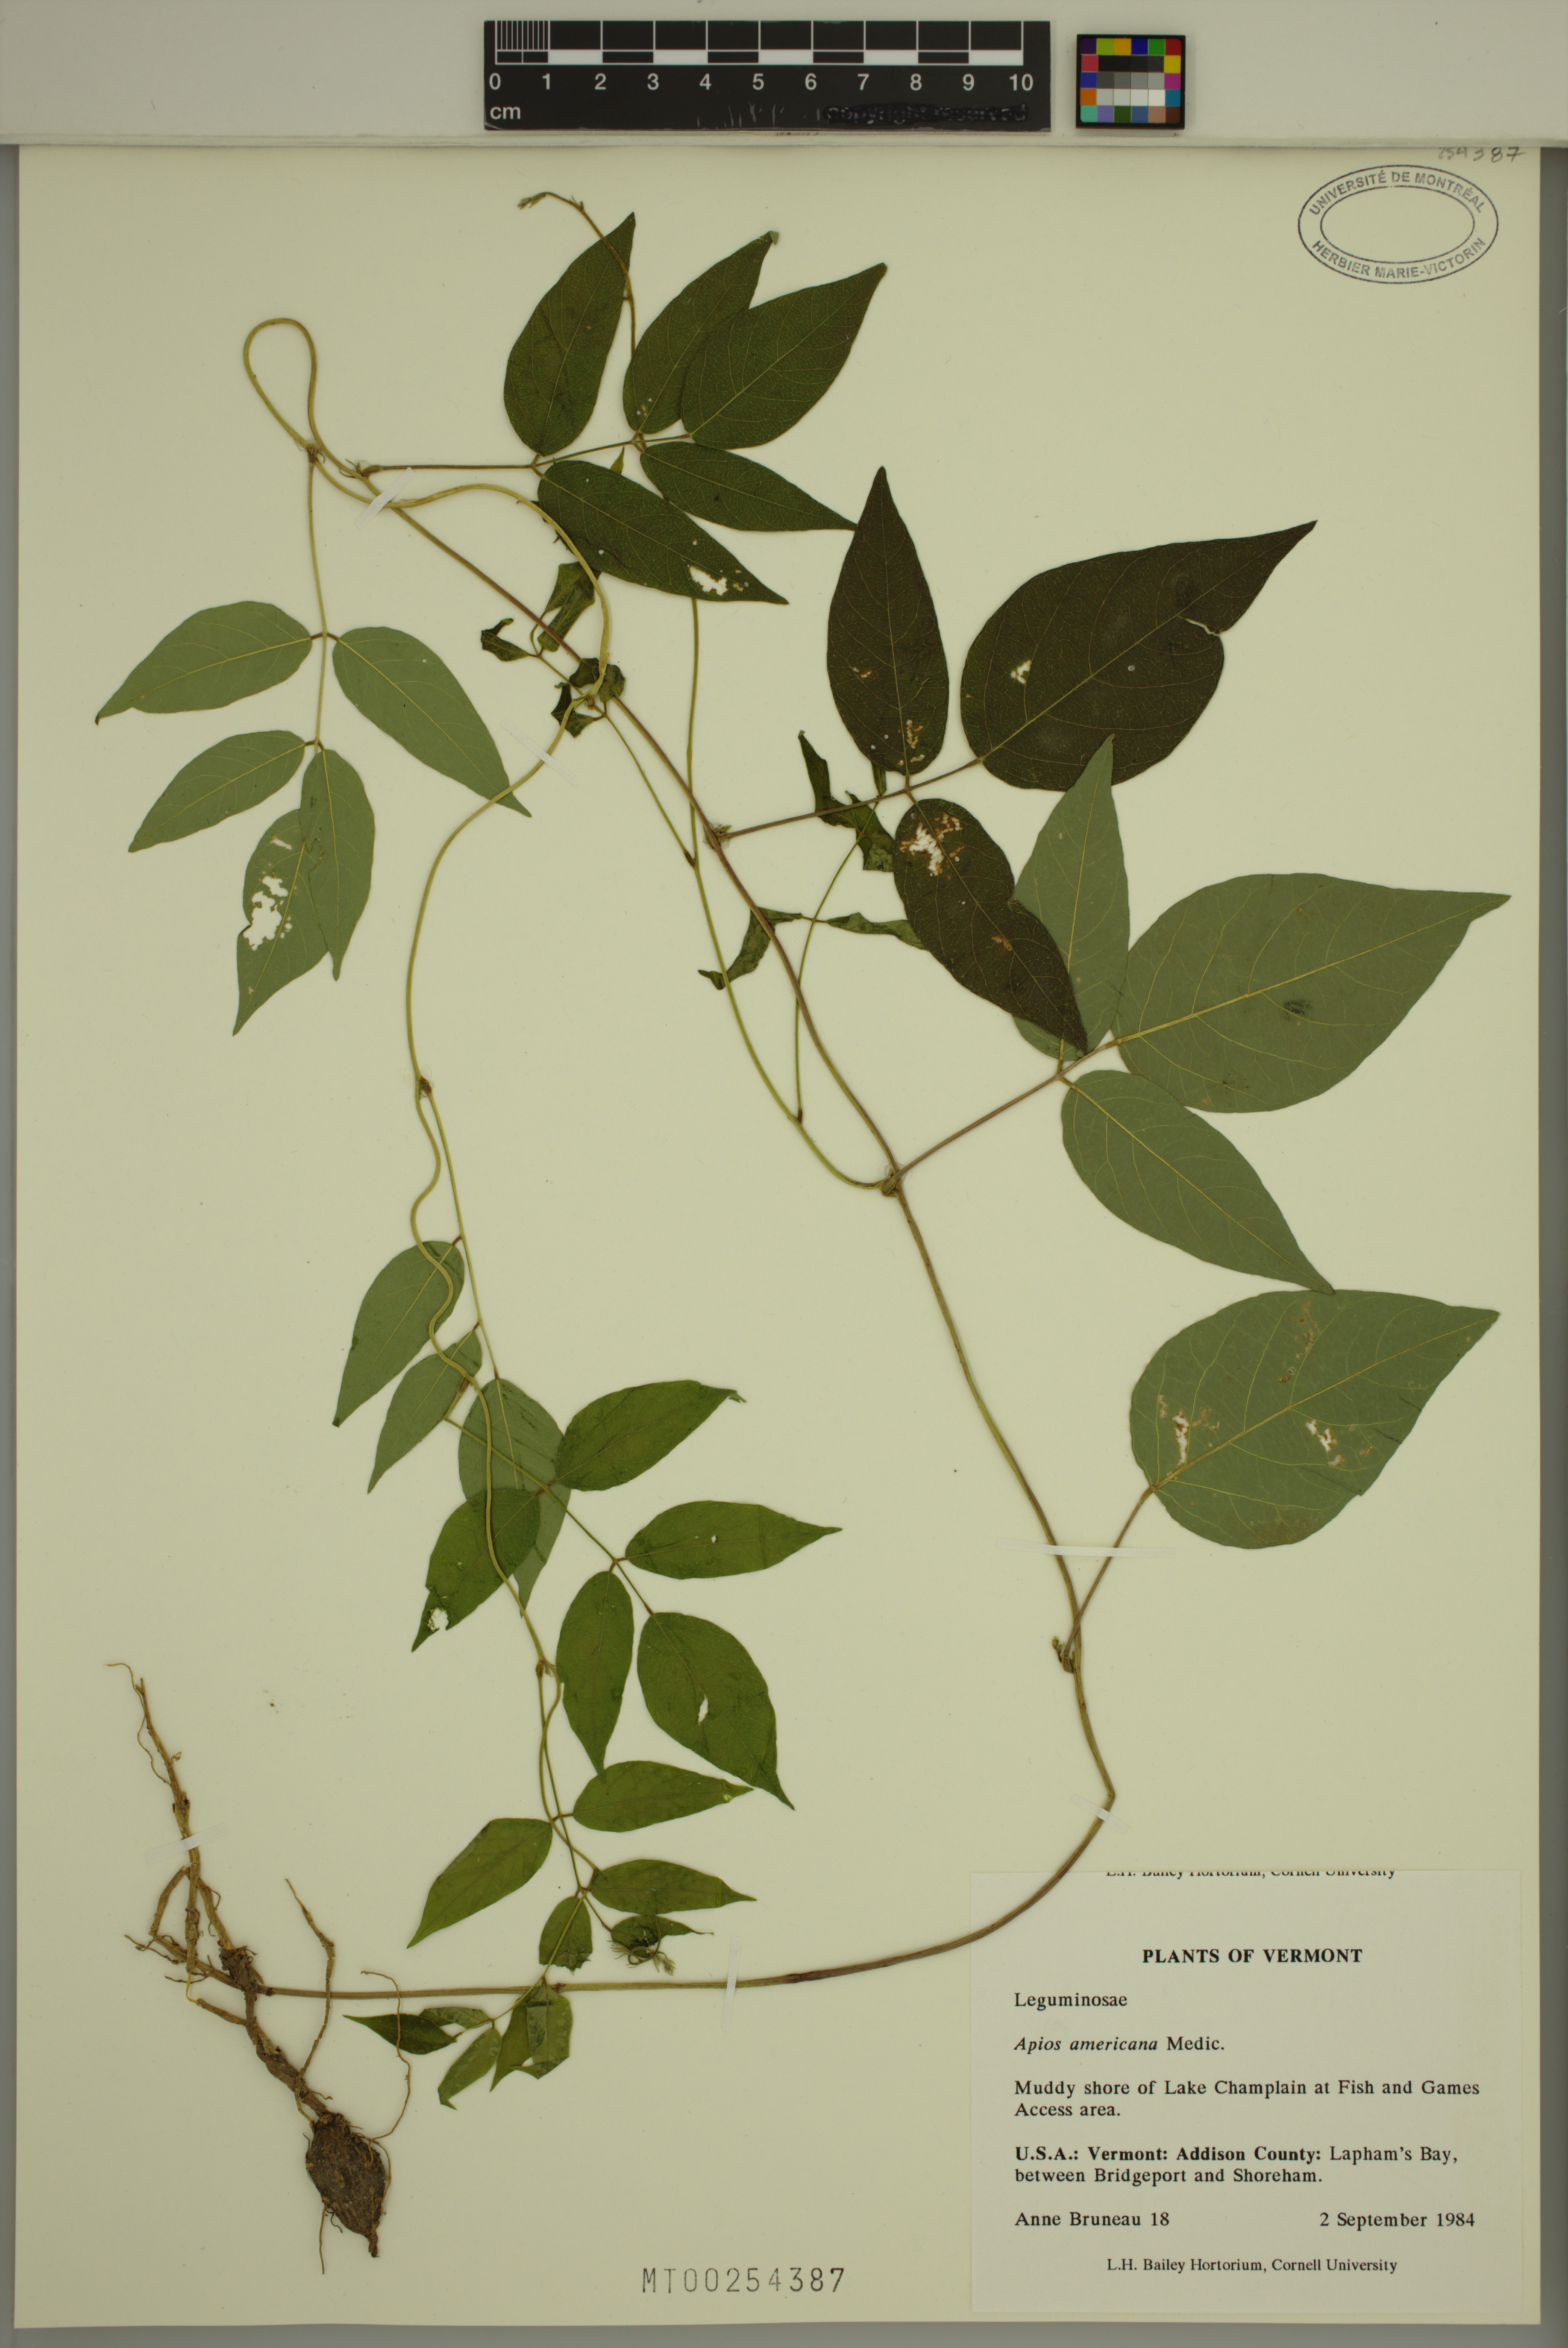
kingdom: Plantae
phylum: Tracheophyta
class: Magnoliopsida
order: Fabales
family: Fabaceae
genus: Apios
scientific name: Apios americana
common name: American potato-bean
